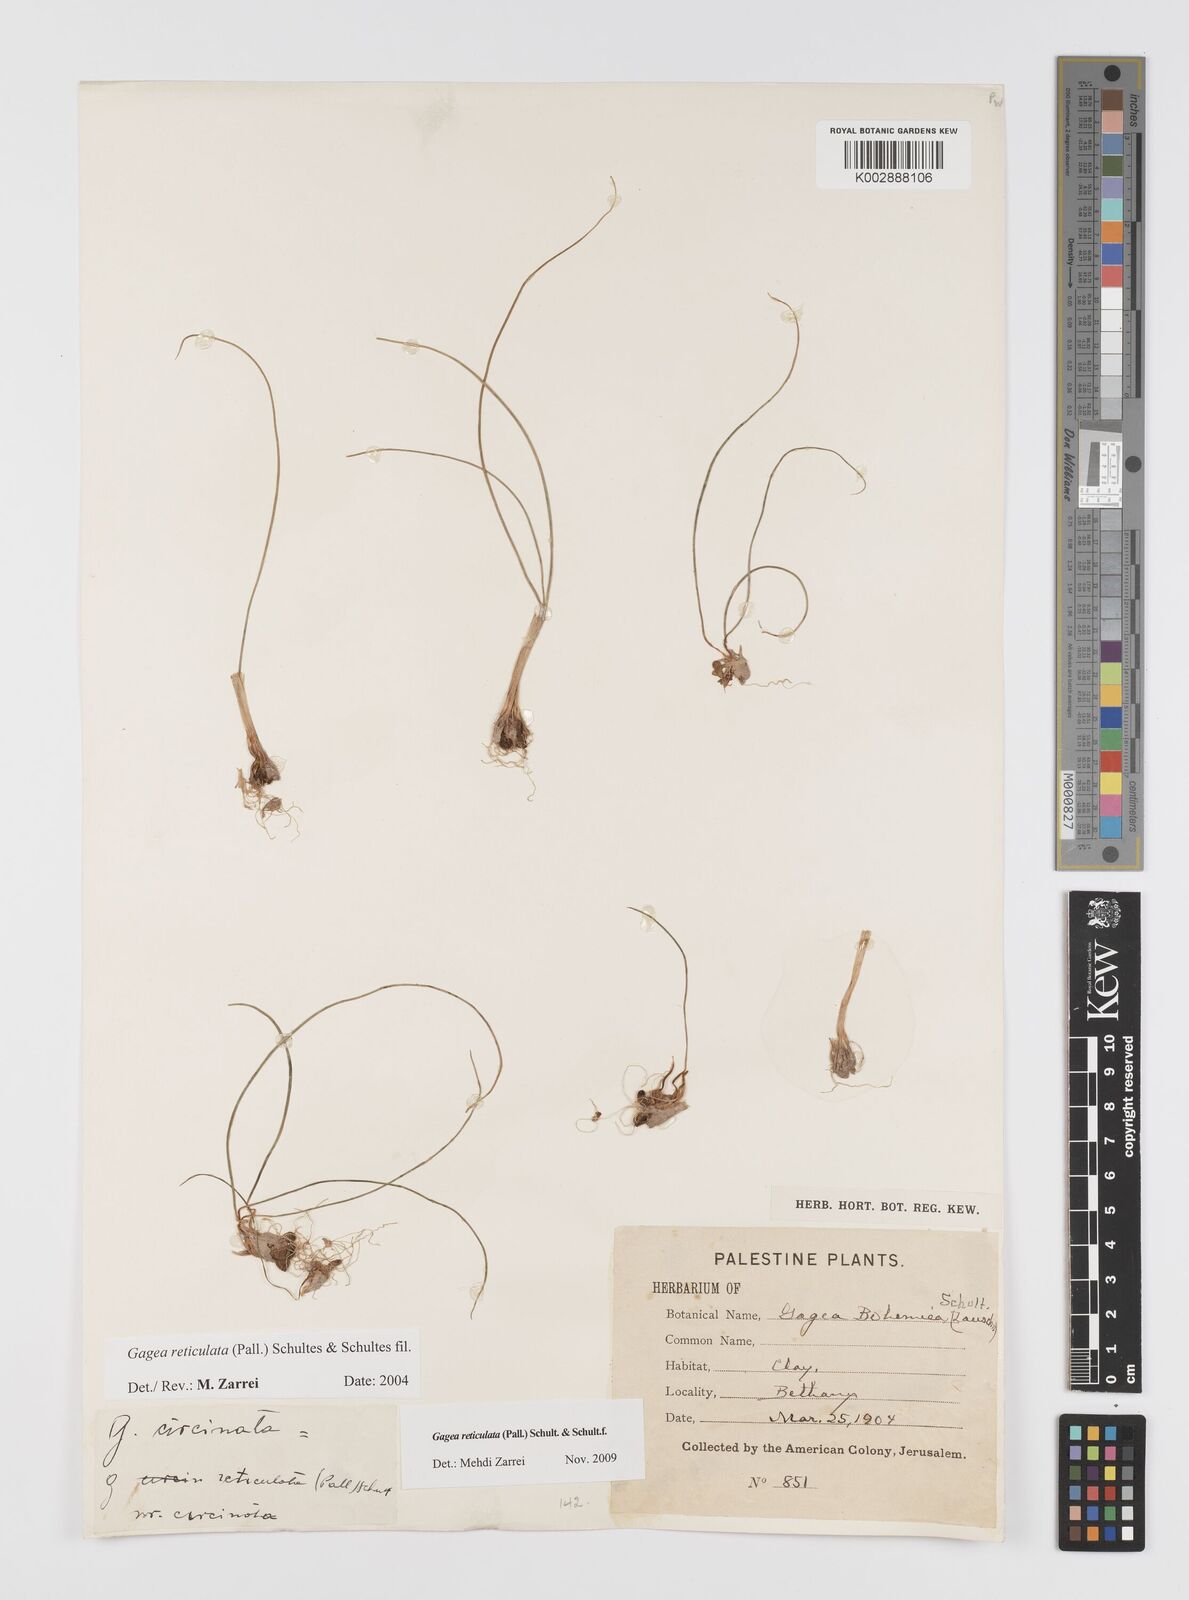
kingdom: Plantae
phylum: Tracheophyta
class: Liliopsida
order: Liliales
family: Liliaceae
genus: Gagea
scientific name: Gagea reticulata
